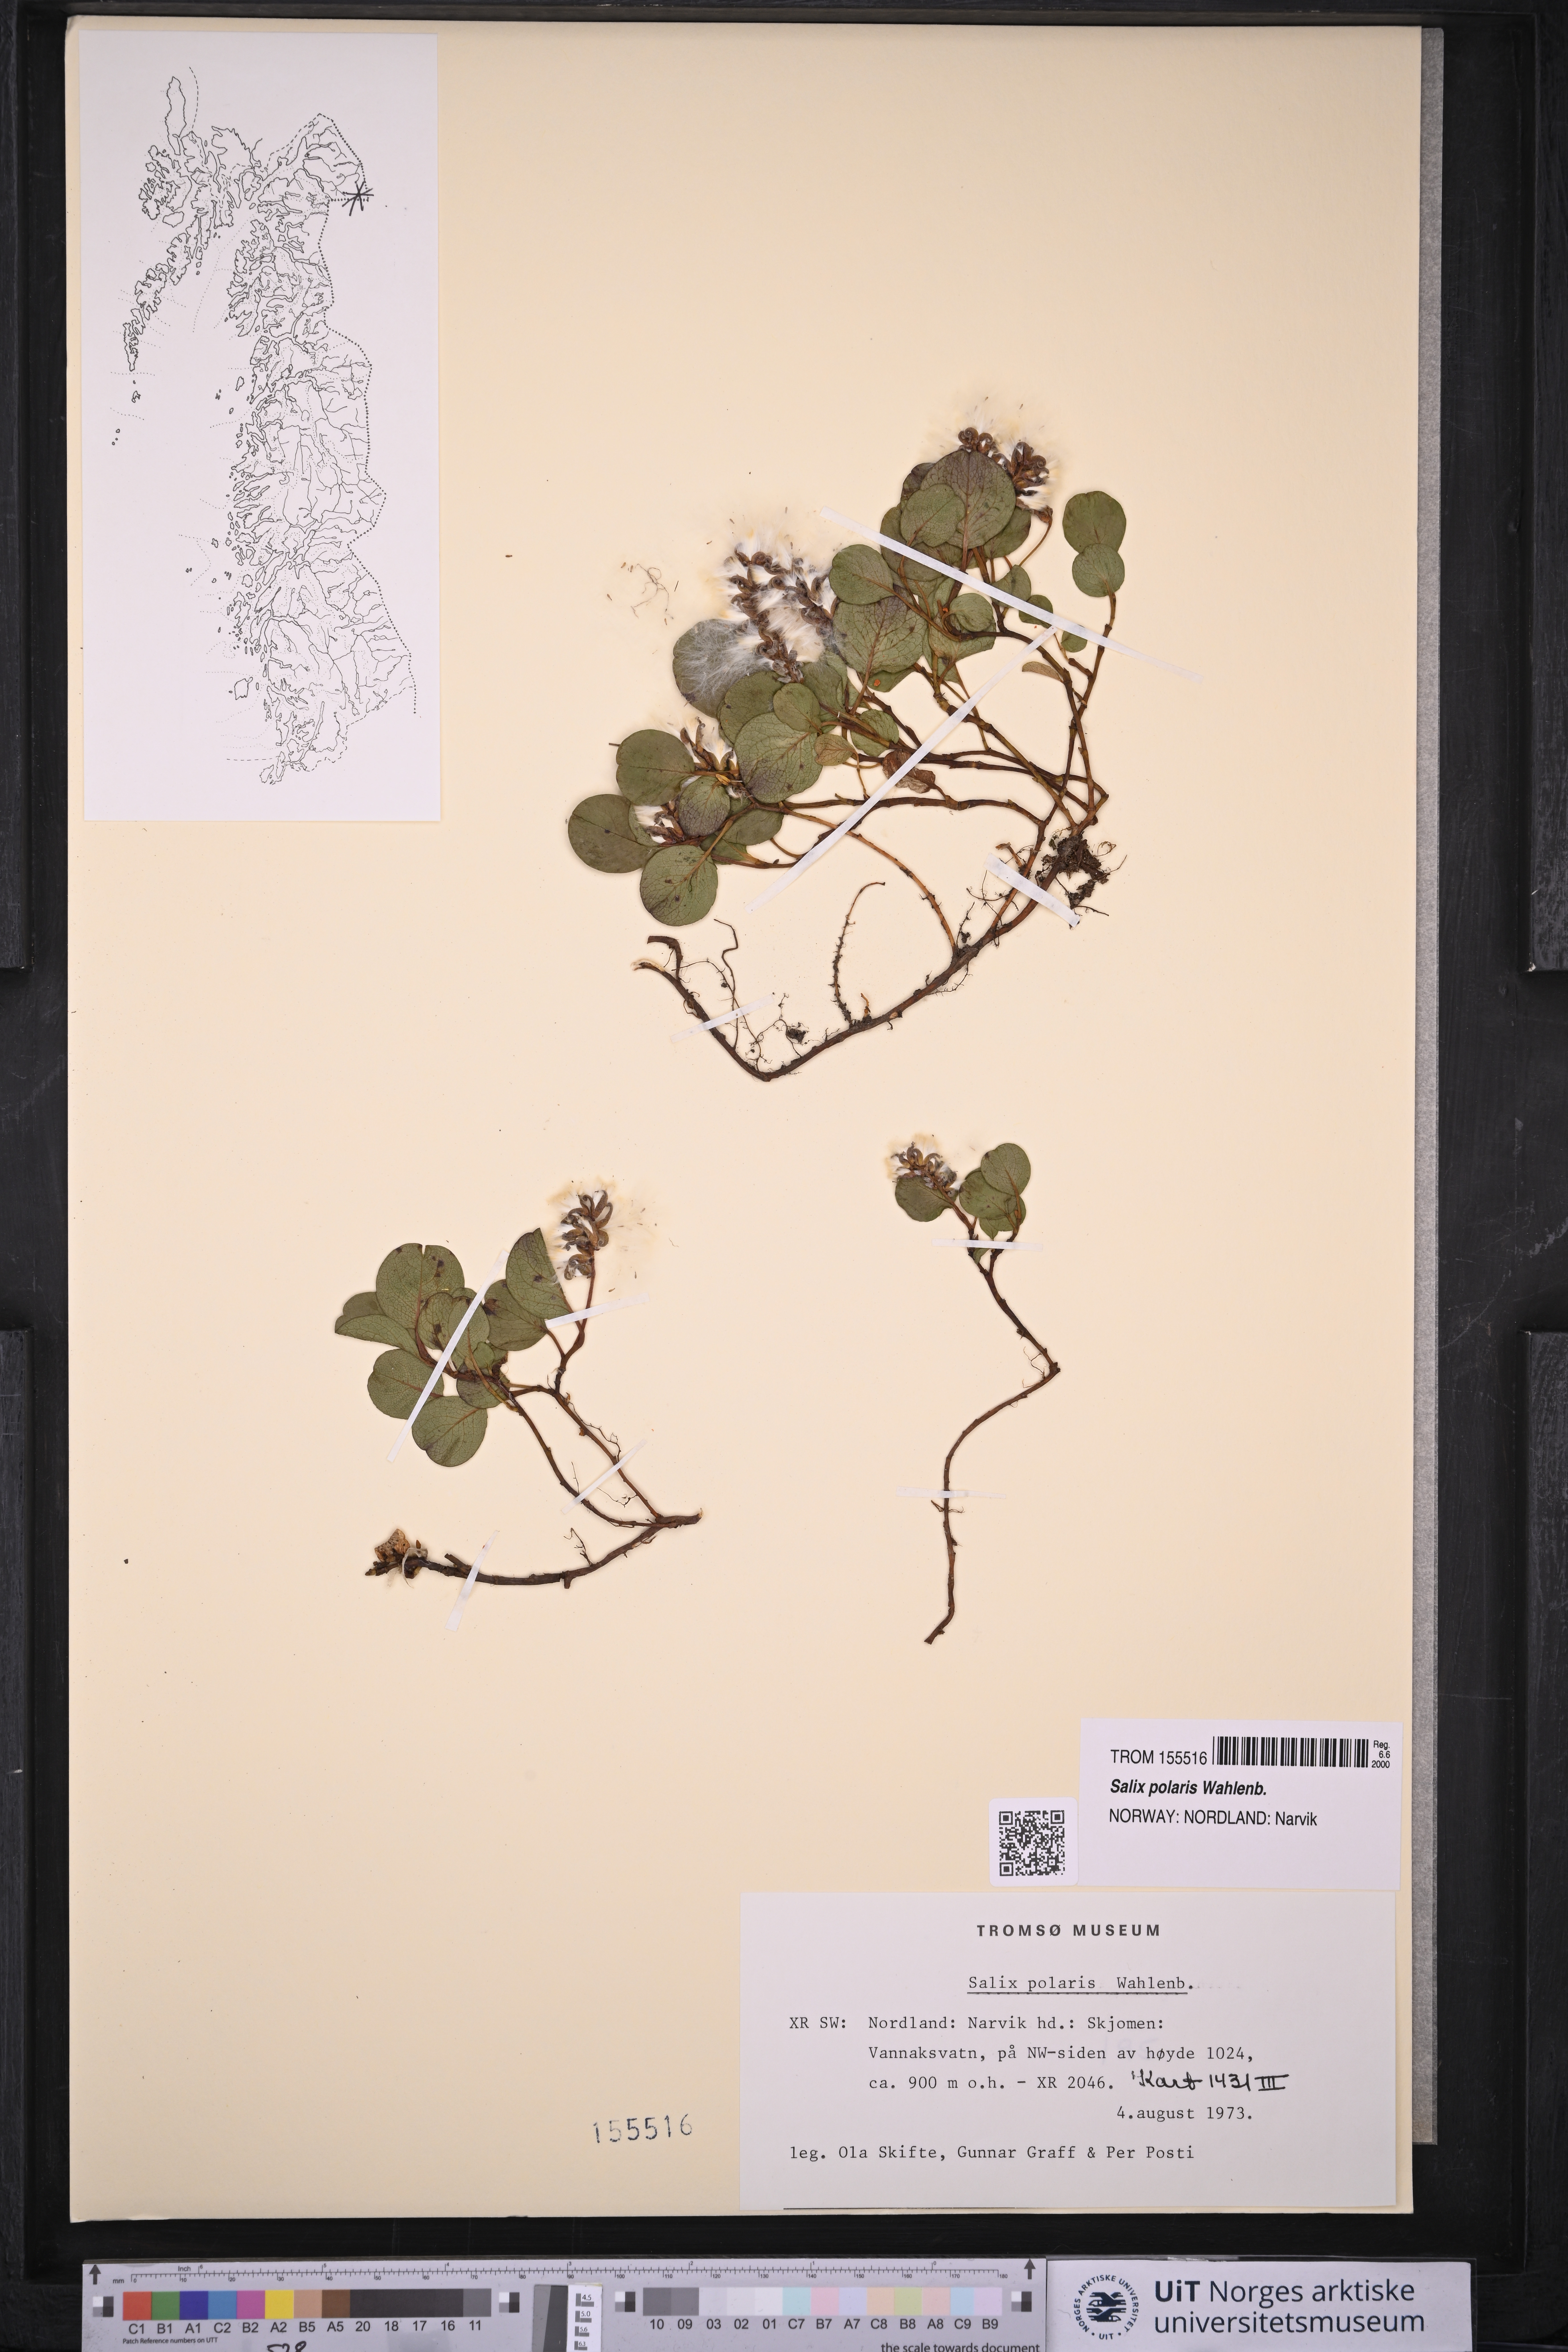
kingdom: Plantae
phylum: Tracheophyta
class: Magnoliopsida
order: Malpighiales
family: Salicaceae
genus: Salix
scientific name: Salix polaris
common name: Polar willow
